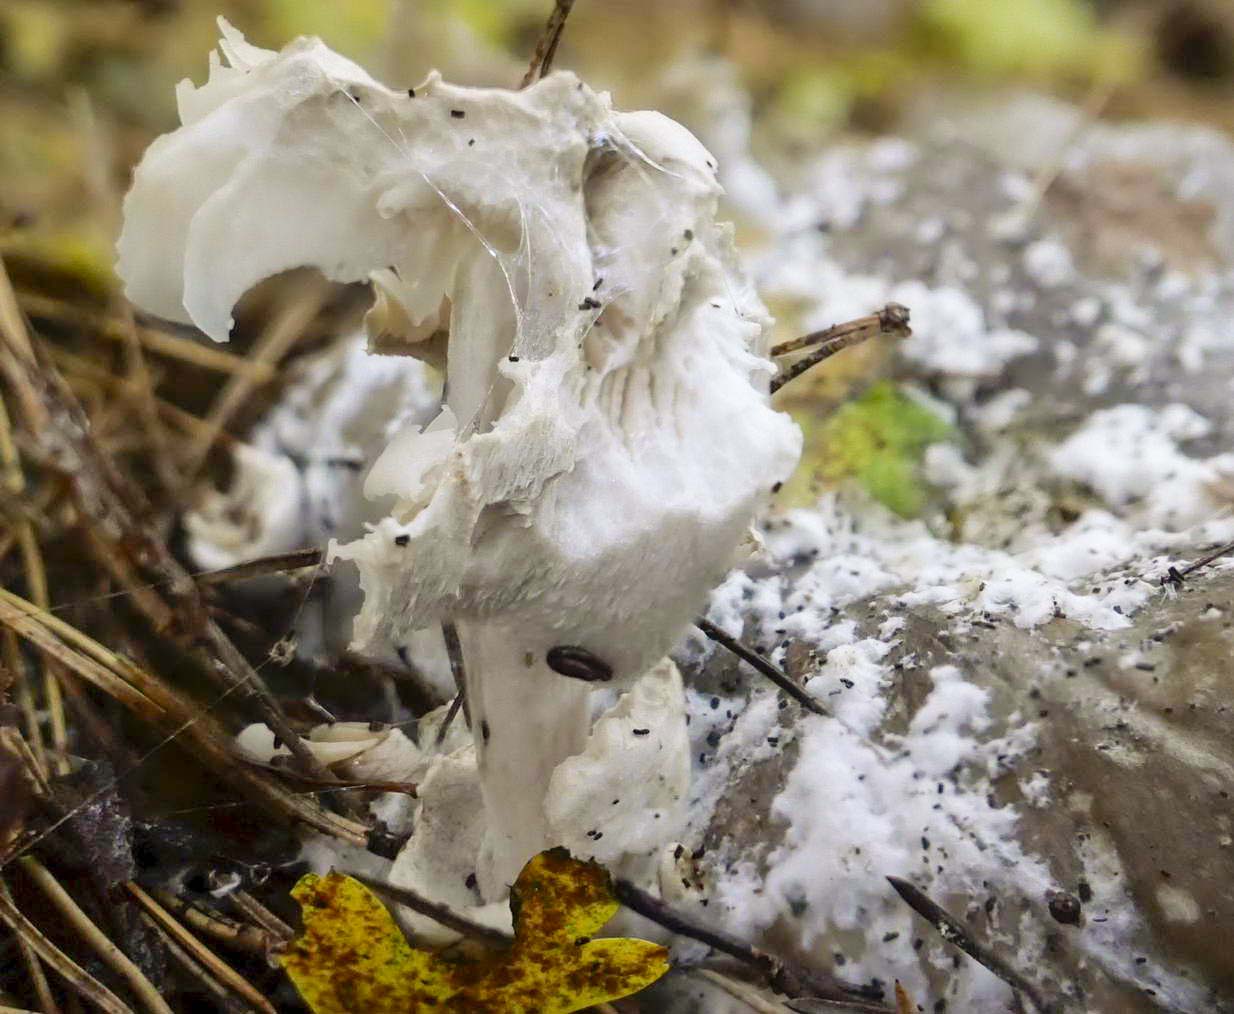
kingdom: Fungi
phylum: Basidiomycota
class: Agaricomycetes
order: Agaricales
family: Pluteaceae
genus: Volvariella
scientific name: Volvariella surrecta
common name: snyltende posesvamp
